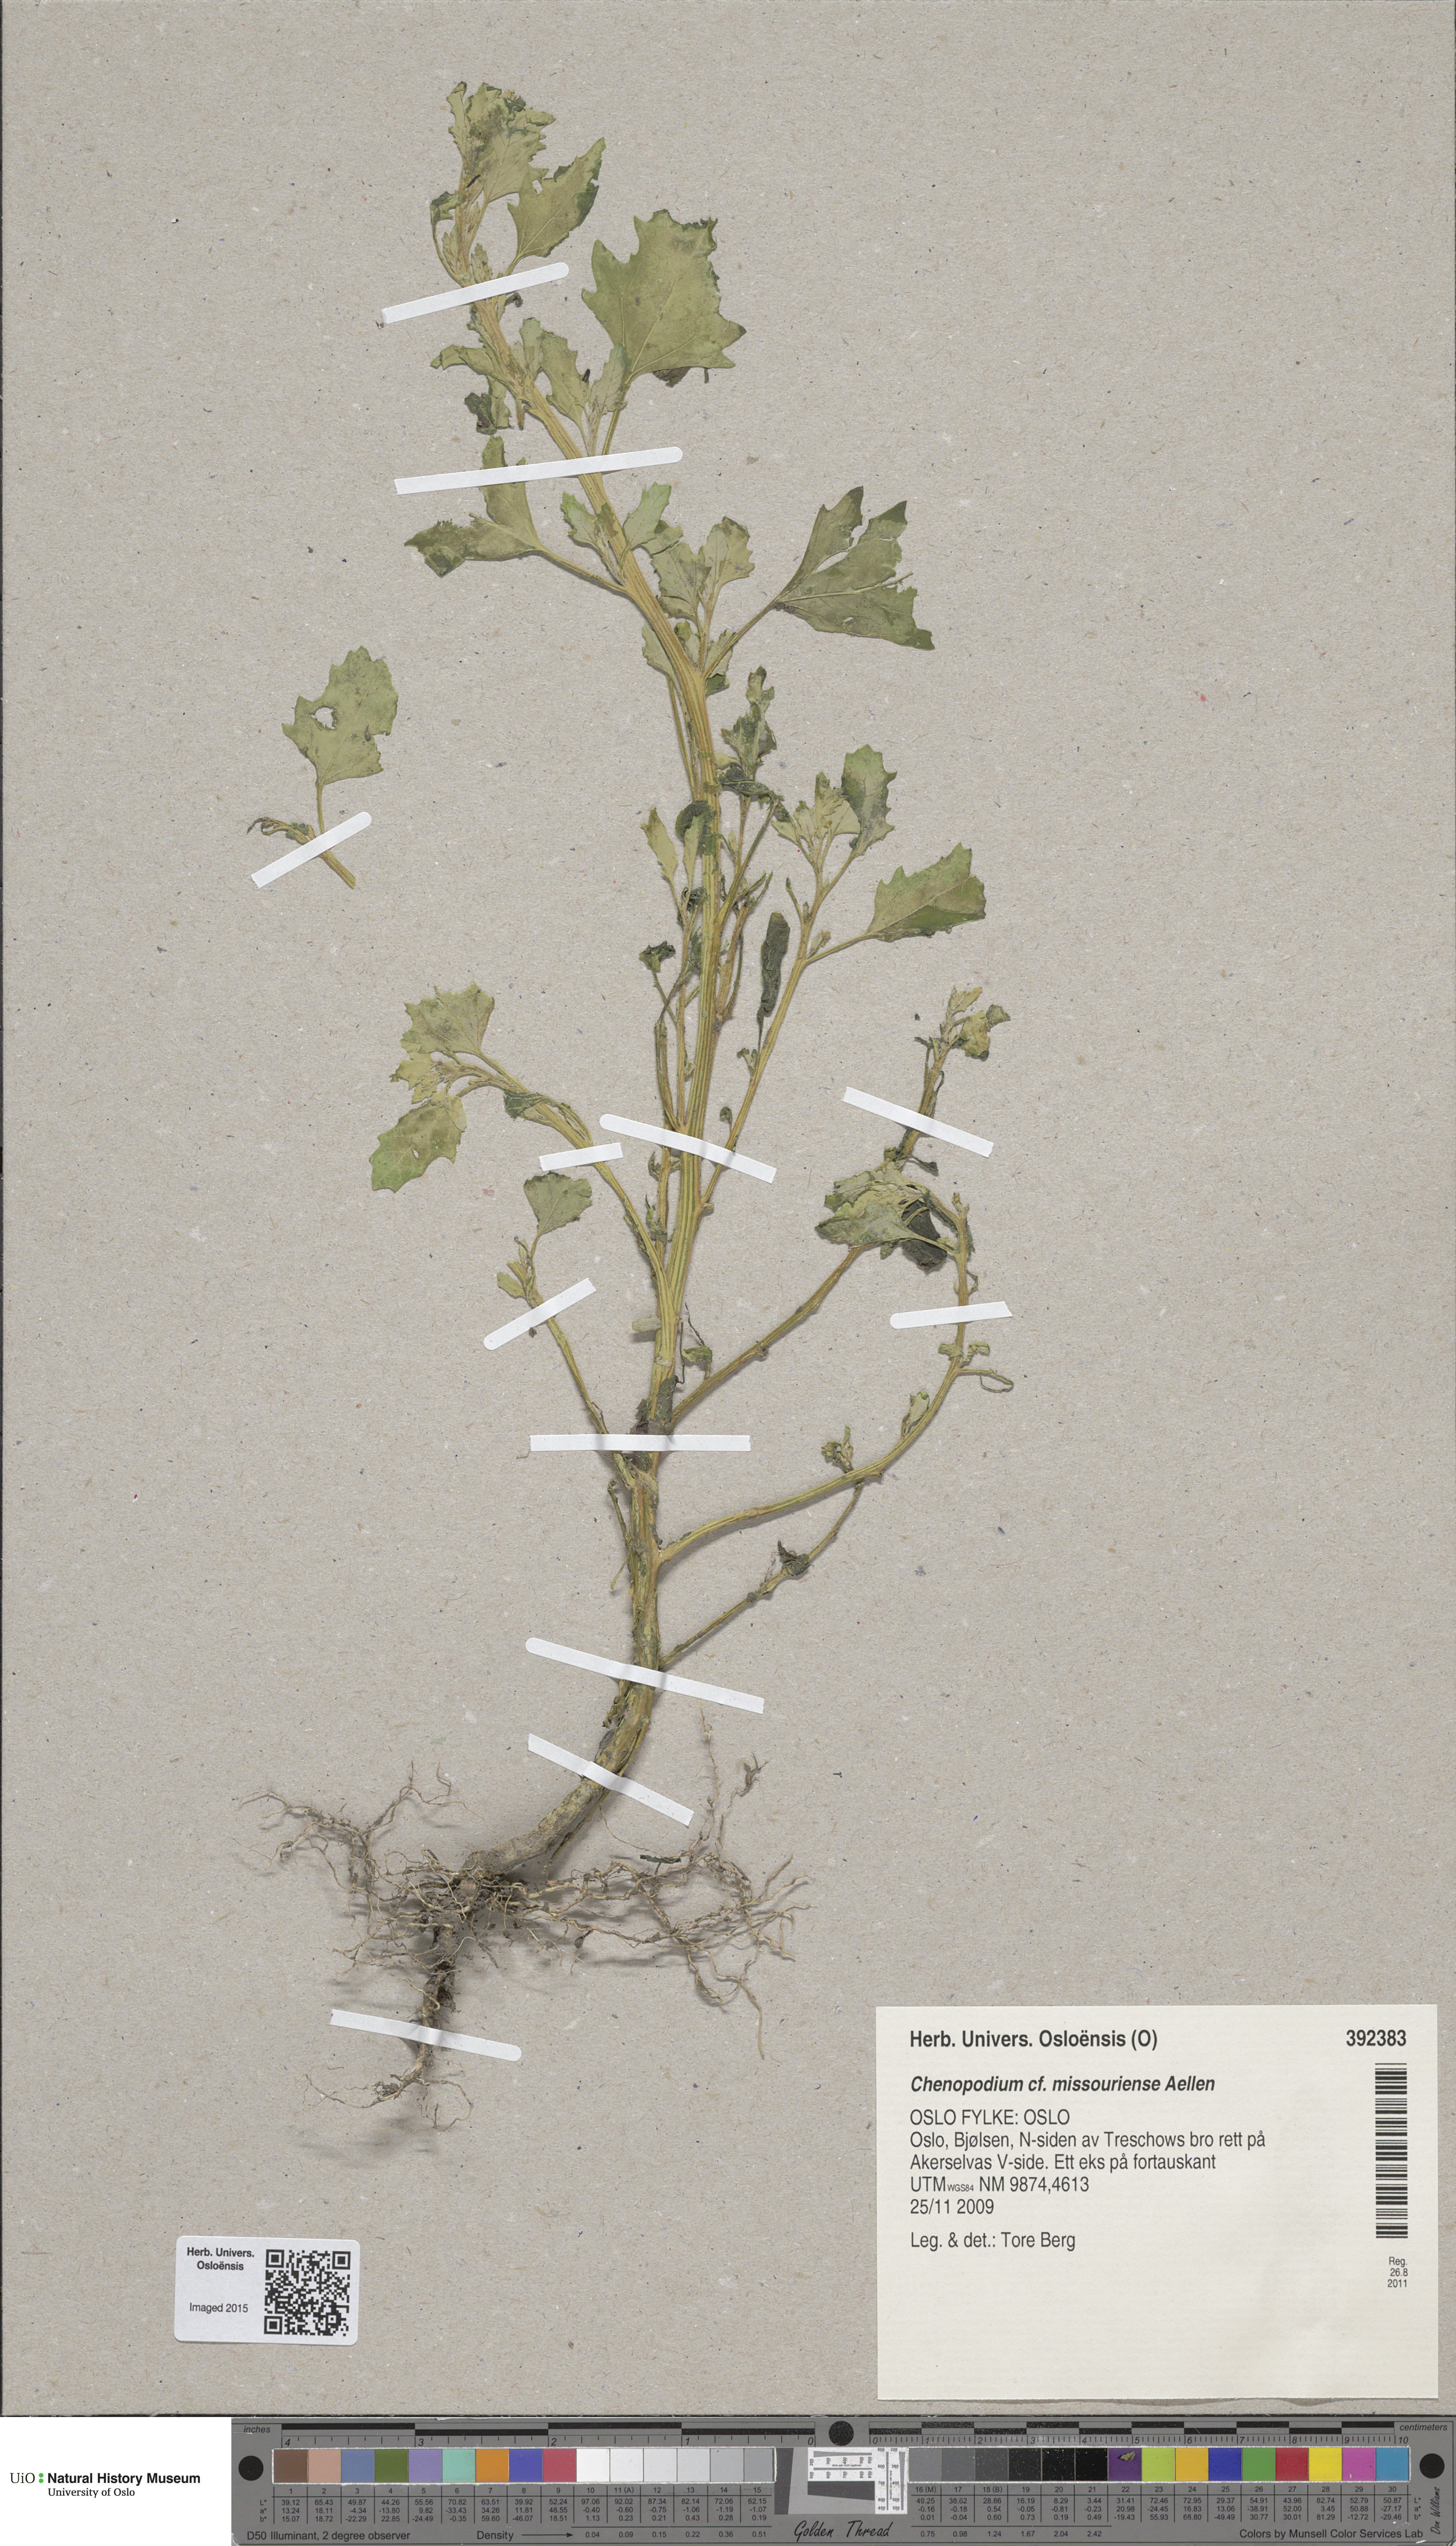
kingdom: Plantae
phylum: Tracheophyta
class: Magnoliopsida
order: Caryophyllales
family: Amaranthaceae
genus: Chenopodium
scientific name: Chenopodium album
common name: Fat-hen
